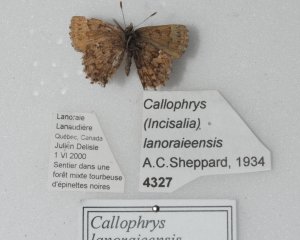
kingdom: Animalia
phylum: Arthropoda
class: Insecta
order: Lepidoptera
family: Lycaenidae
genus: Incisalia
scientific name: Incisalia lanoraieensis
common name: Bog Elfin
